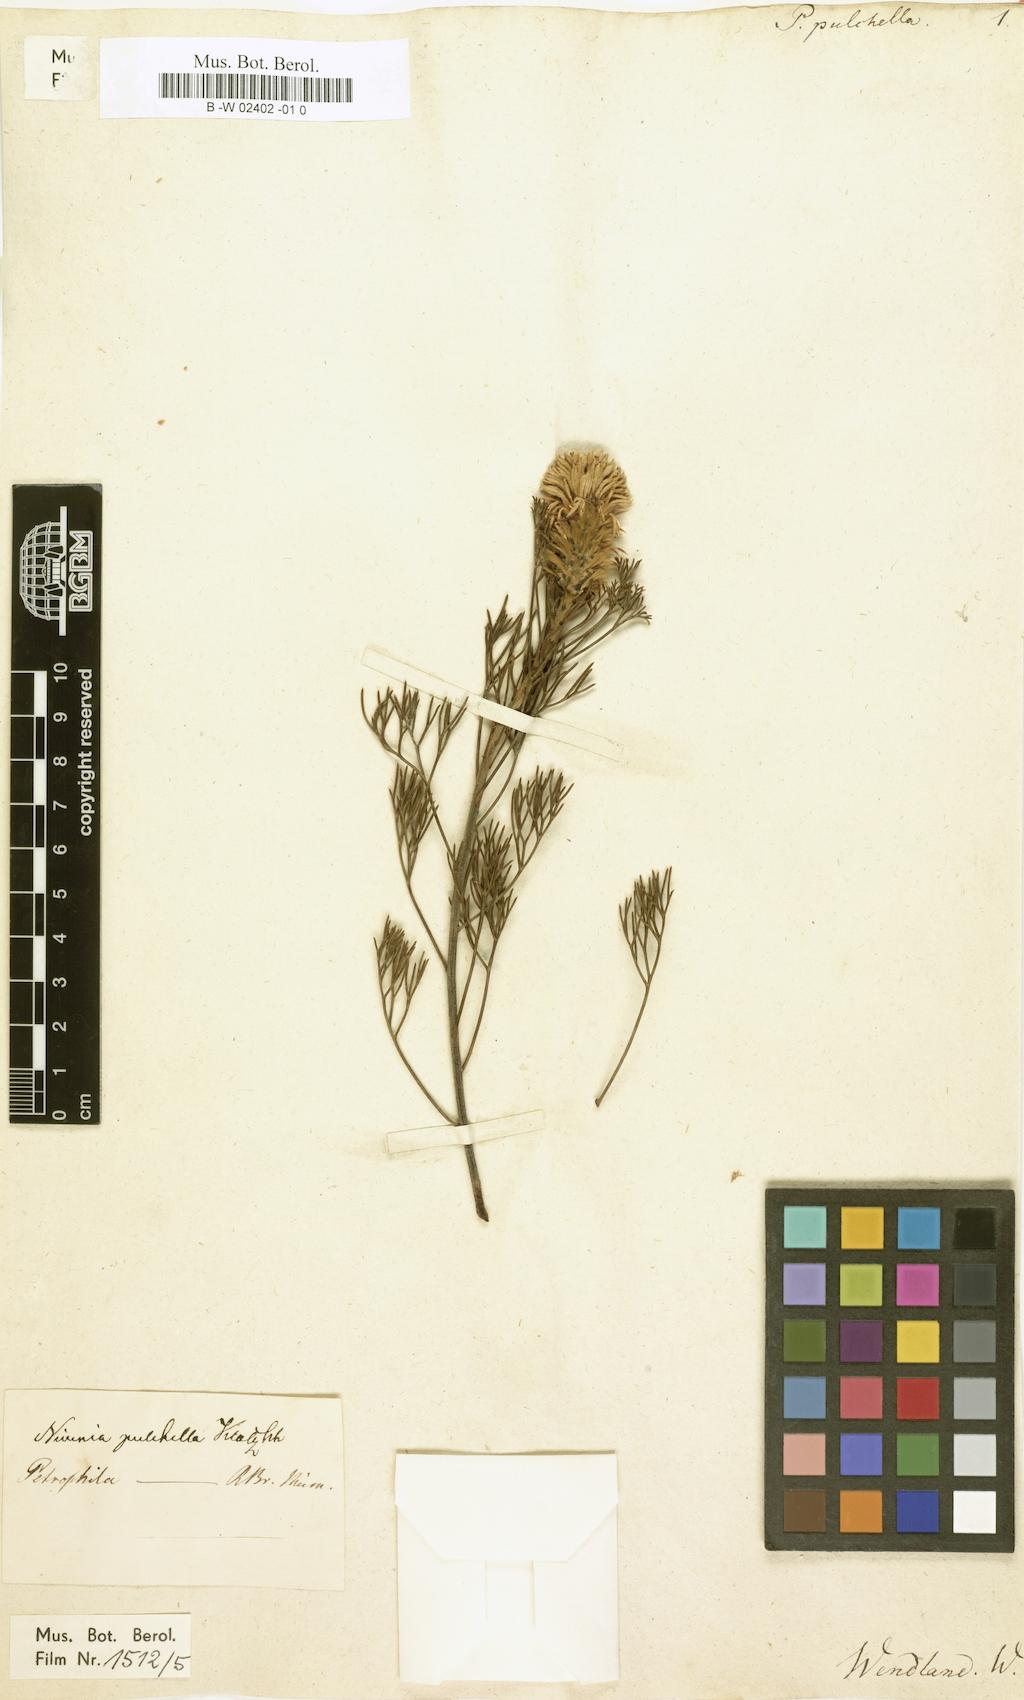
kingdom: Plantae
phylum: Tracheophyta
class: Magnoliopsida
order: Proteales
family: Proteaceae
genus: Petrophile
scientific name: Petrophile pulchella
